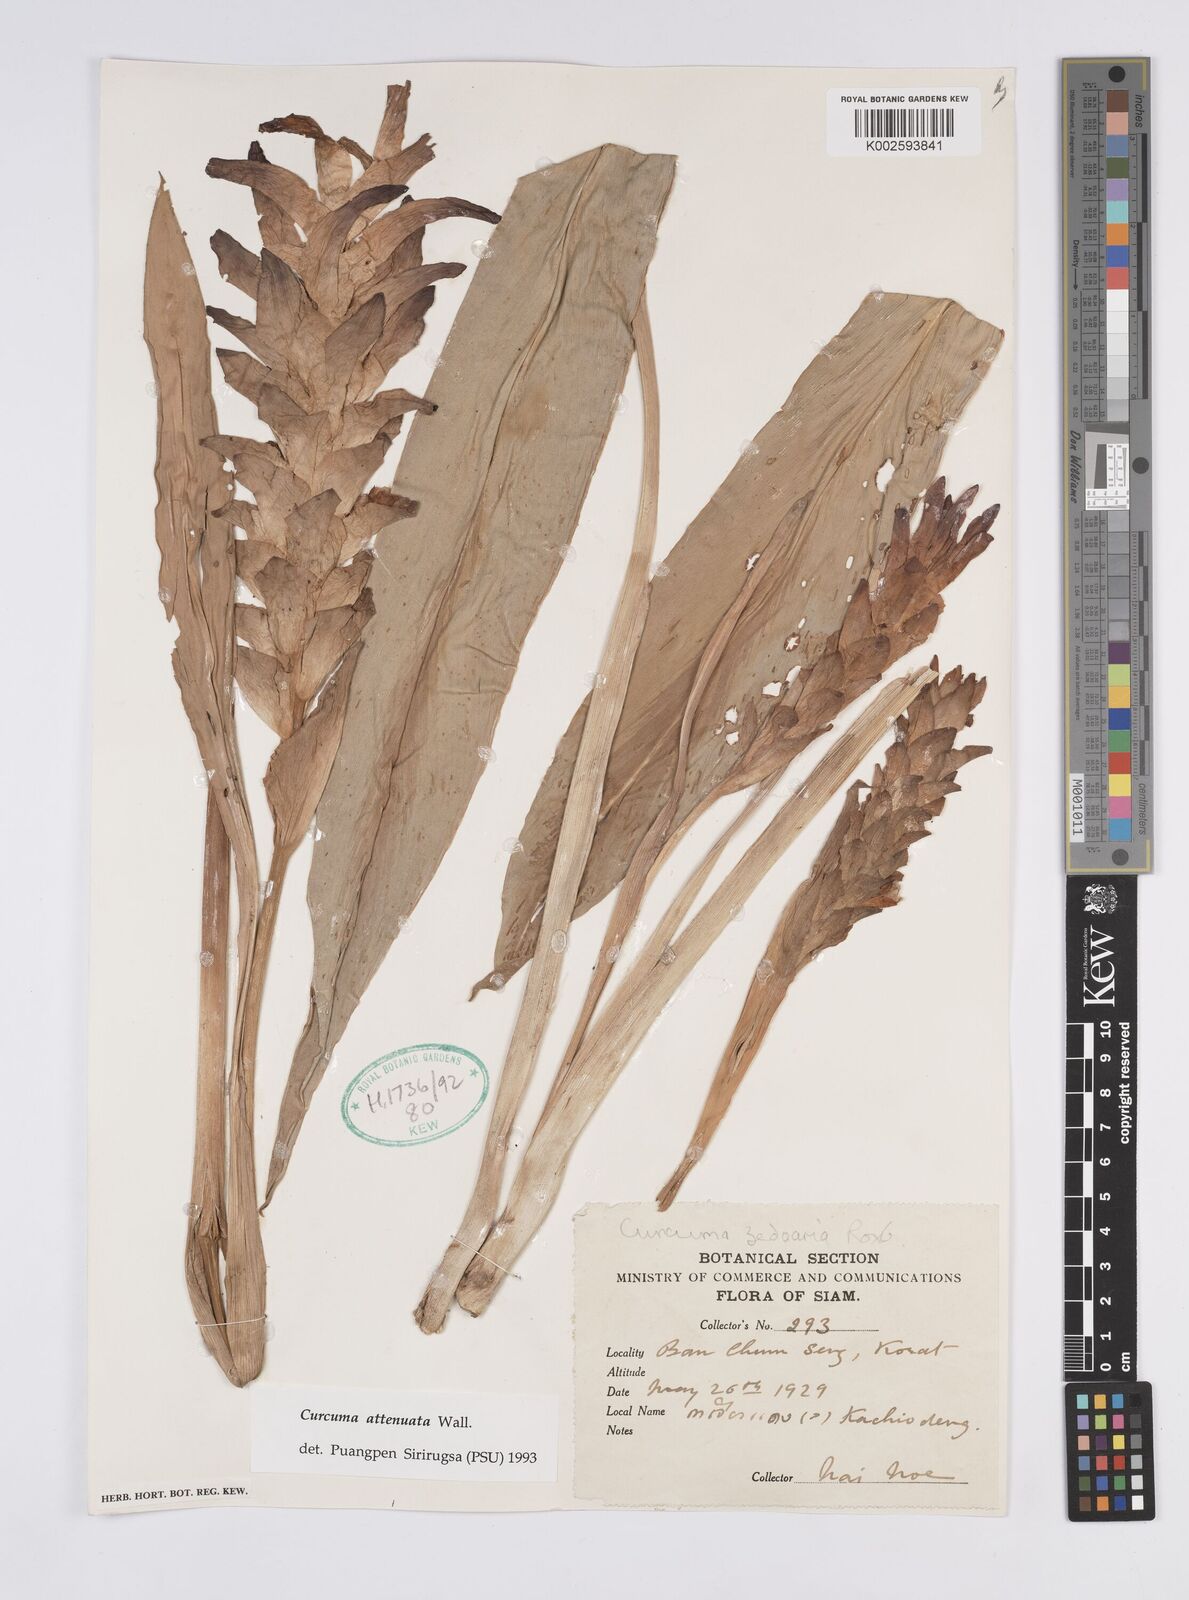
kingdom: Plantae
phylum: Tracheophyta
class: Liliopsida
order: Zingiberales
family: Zingiberaceae
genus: Curcuma
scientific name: Curcuma attenuata
